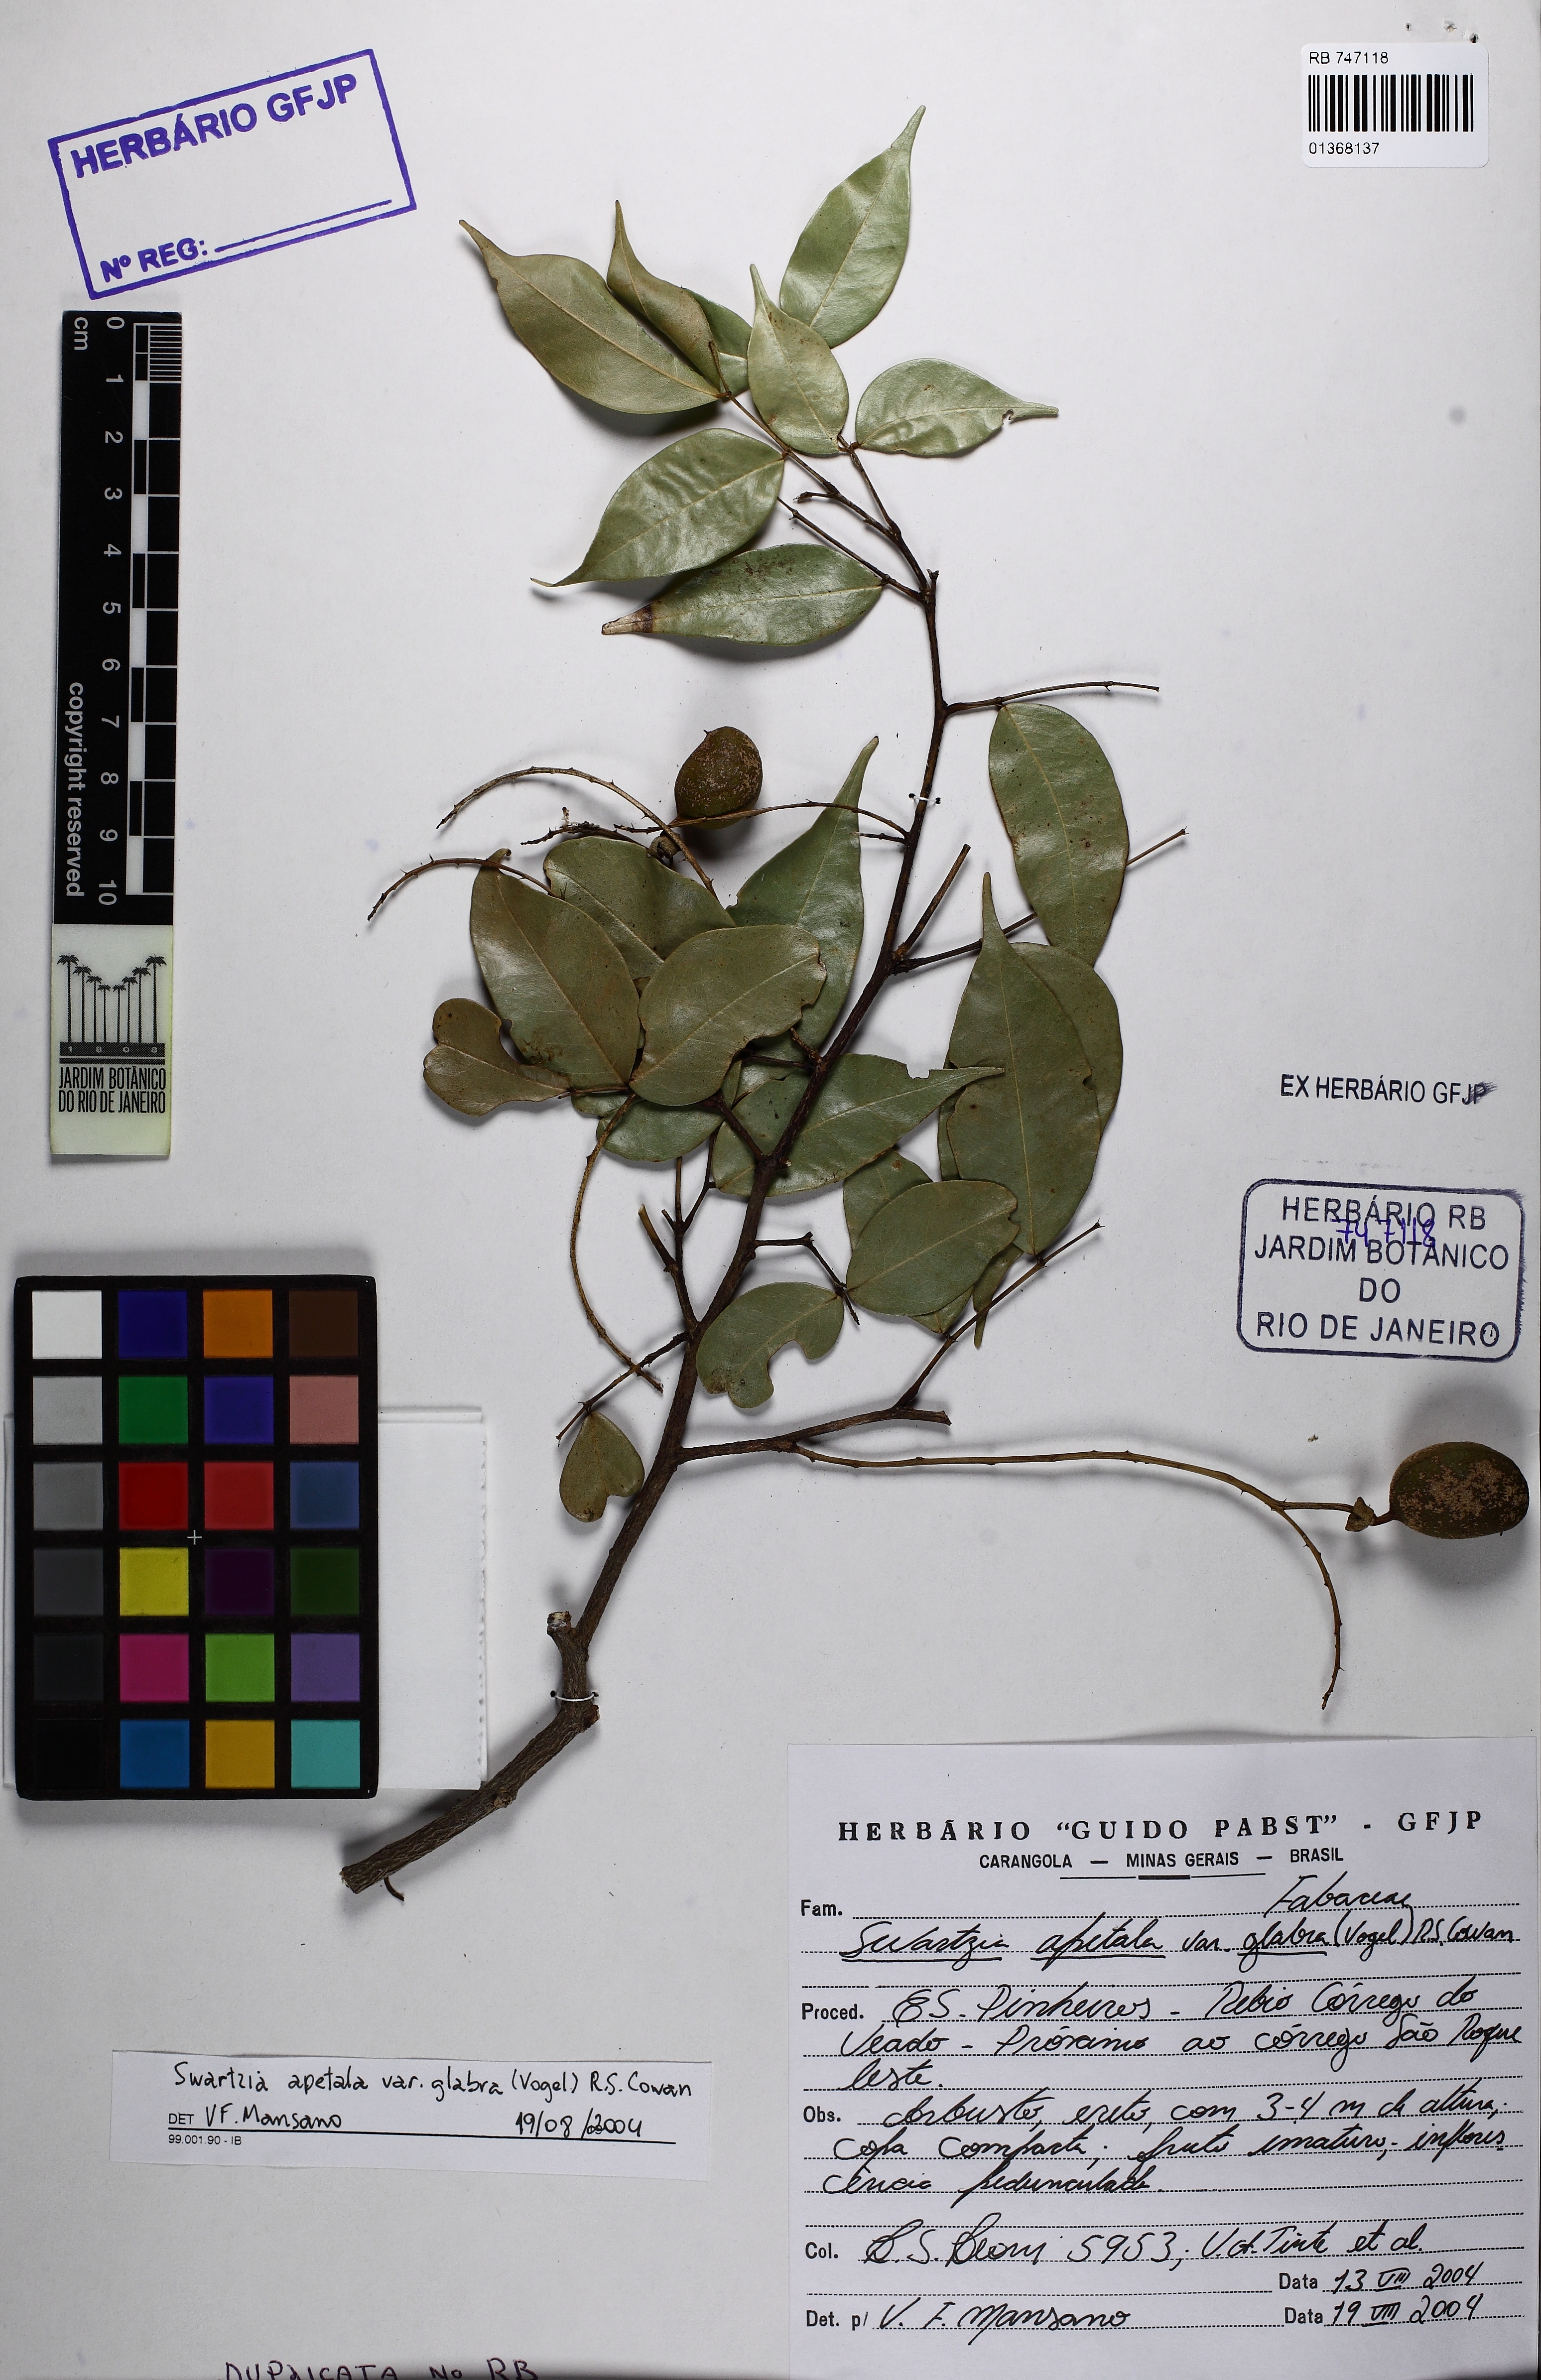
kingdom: Plantae
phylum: Tracheophyta
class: Magnoliopsida
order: Fabales
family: Fabaceae
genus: Swartzia
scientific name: Swartzia apetala
